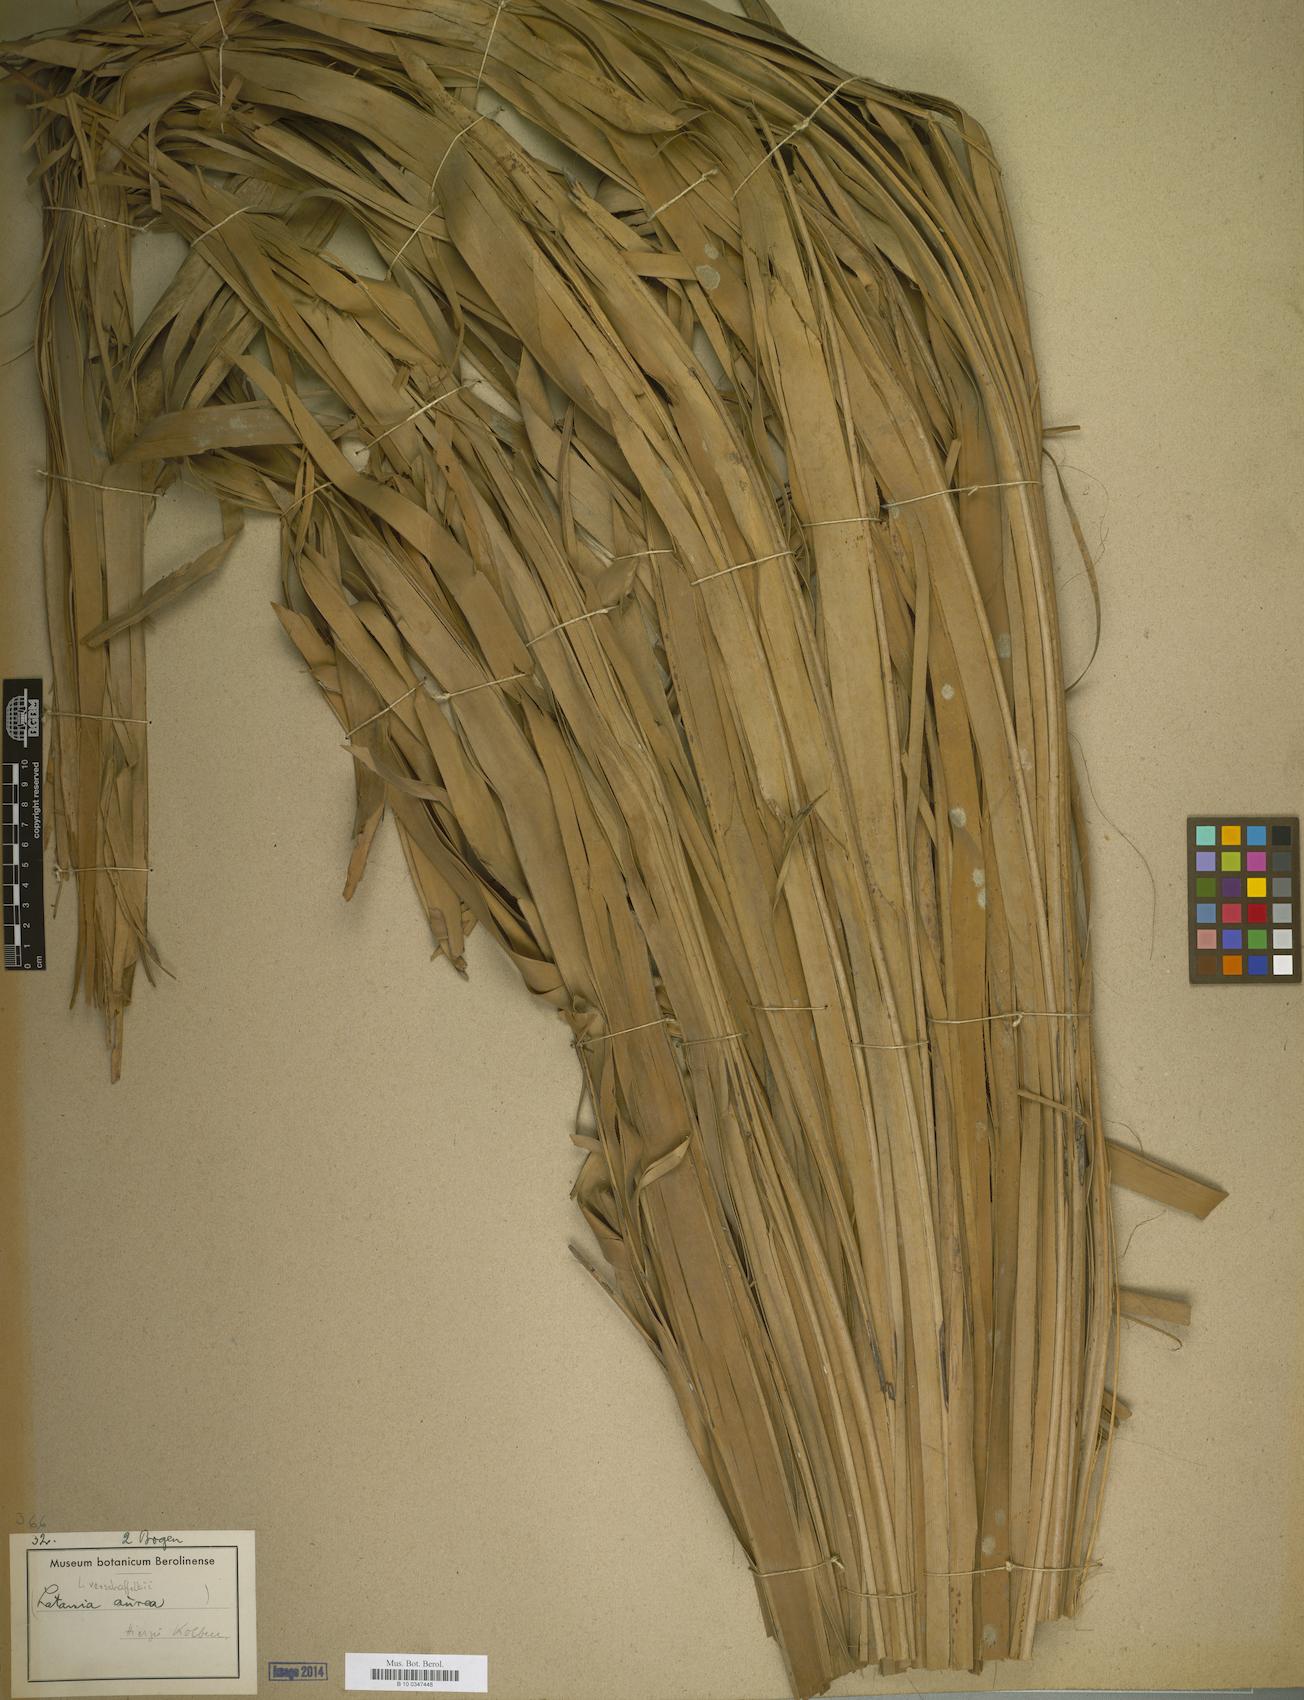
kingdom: Plantae
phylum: Tracheophyta
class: Liliopsida
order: Arecales
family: Arecaceae
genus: Latania
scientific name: Latania verschaffeltii
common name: Yellow latan
